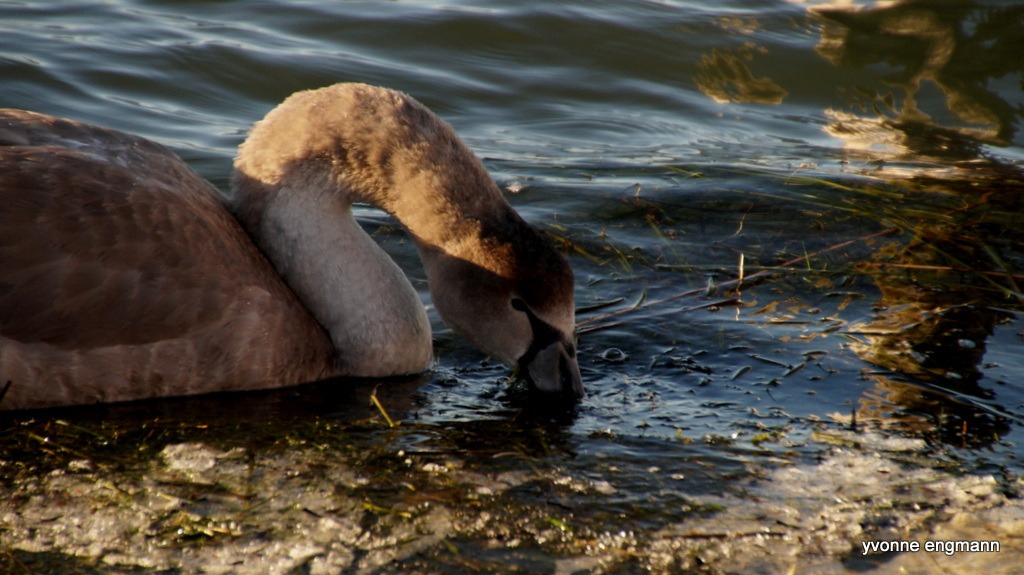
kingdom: Animalia
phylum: Chordata
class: Aves
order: Anseriformes
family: Anatidae
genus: Cygnus
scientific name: Cygnus olor
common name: Knopsvane
